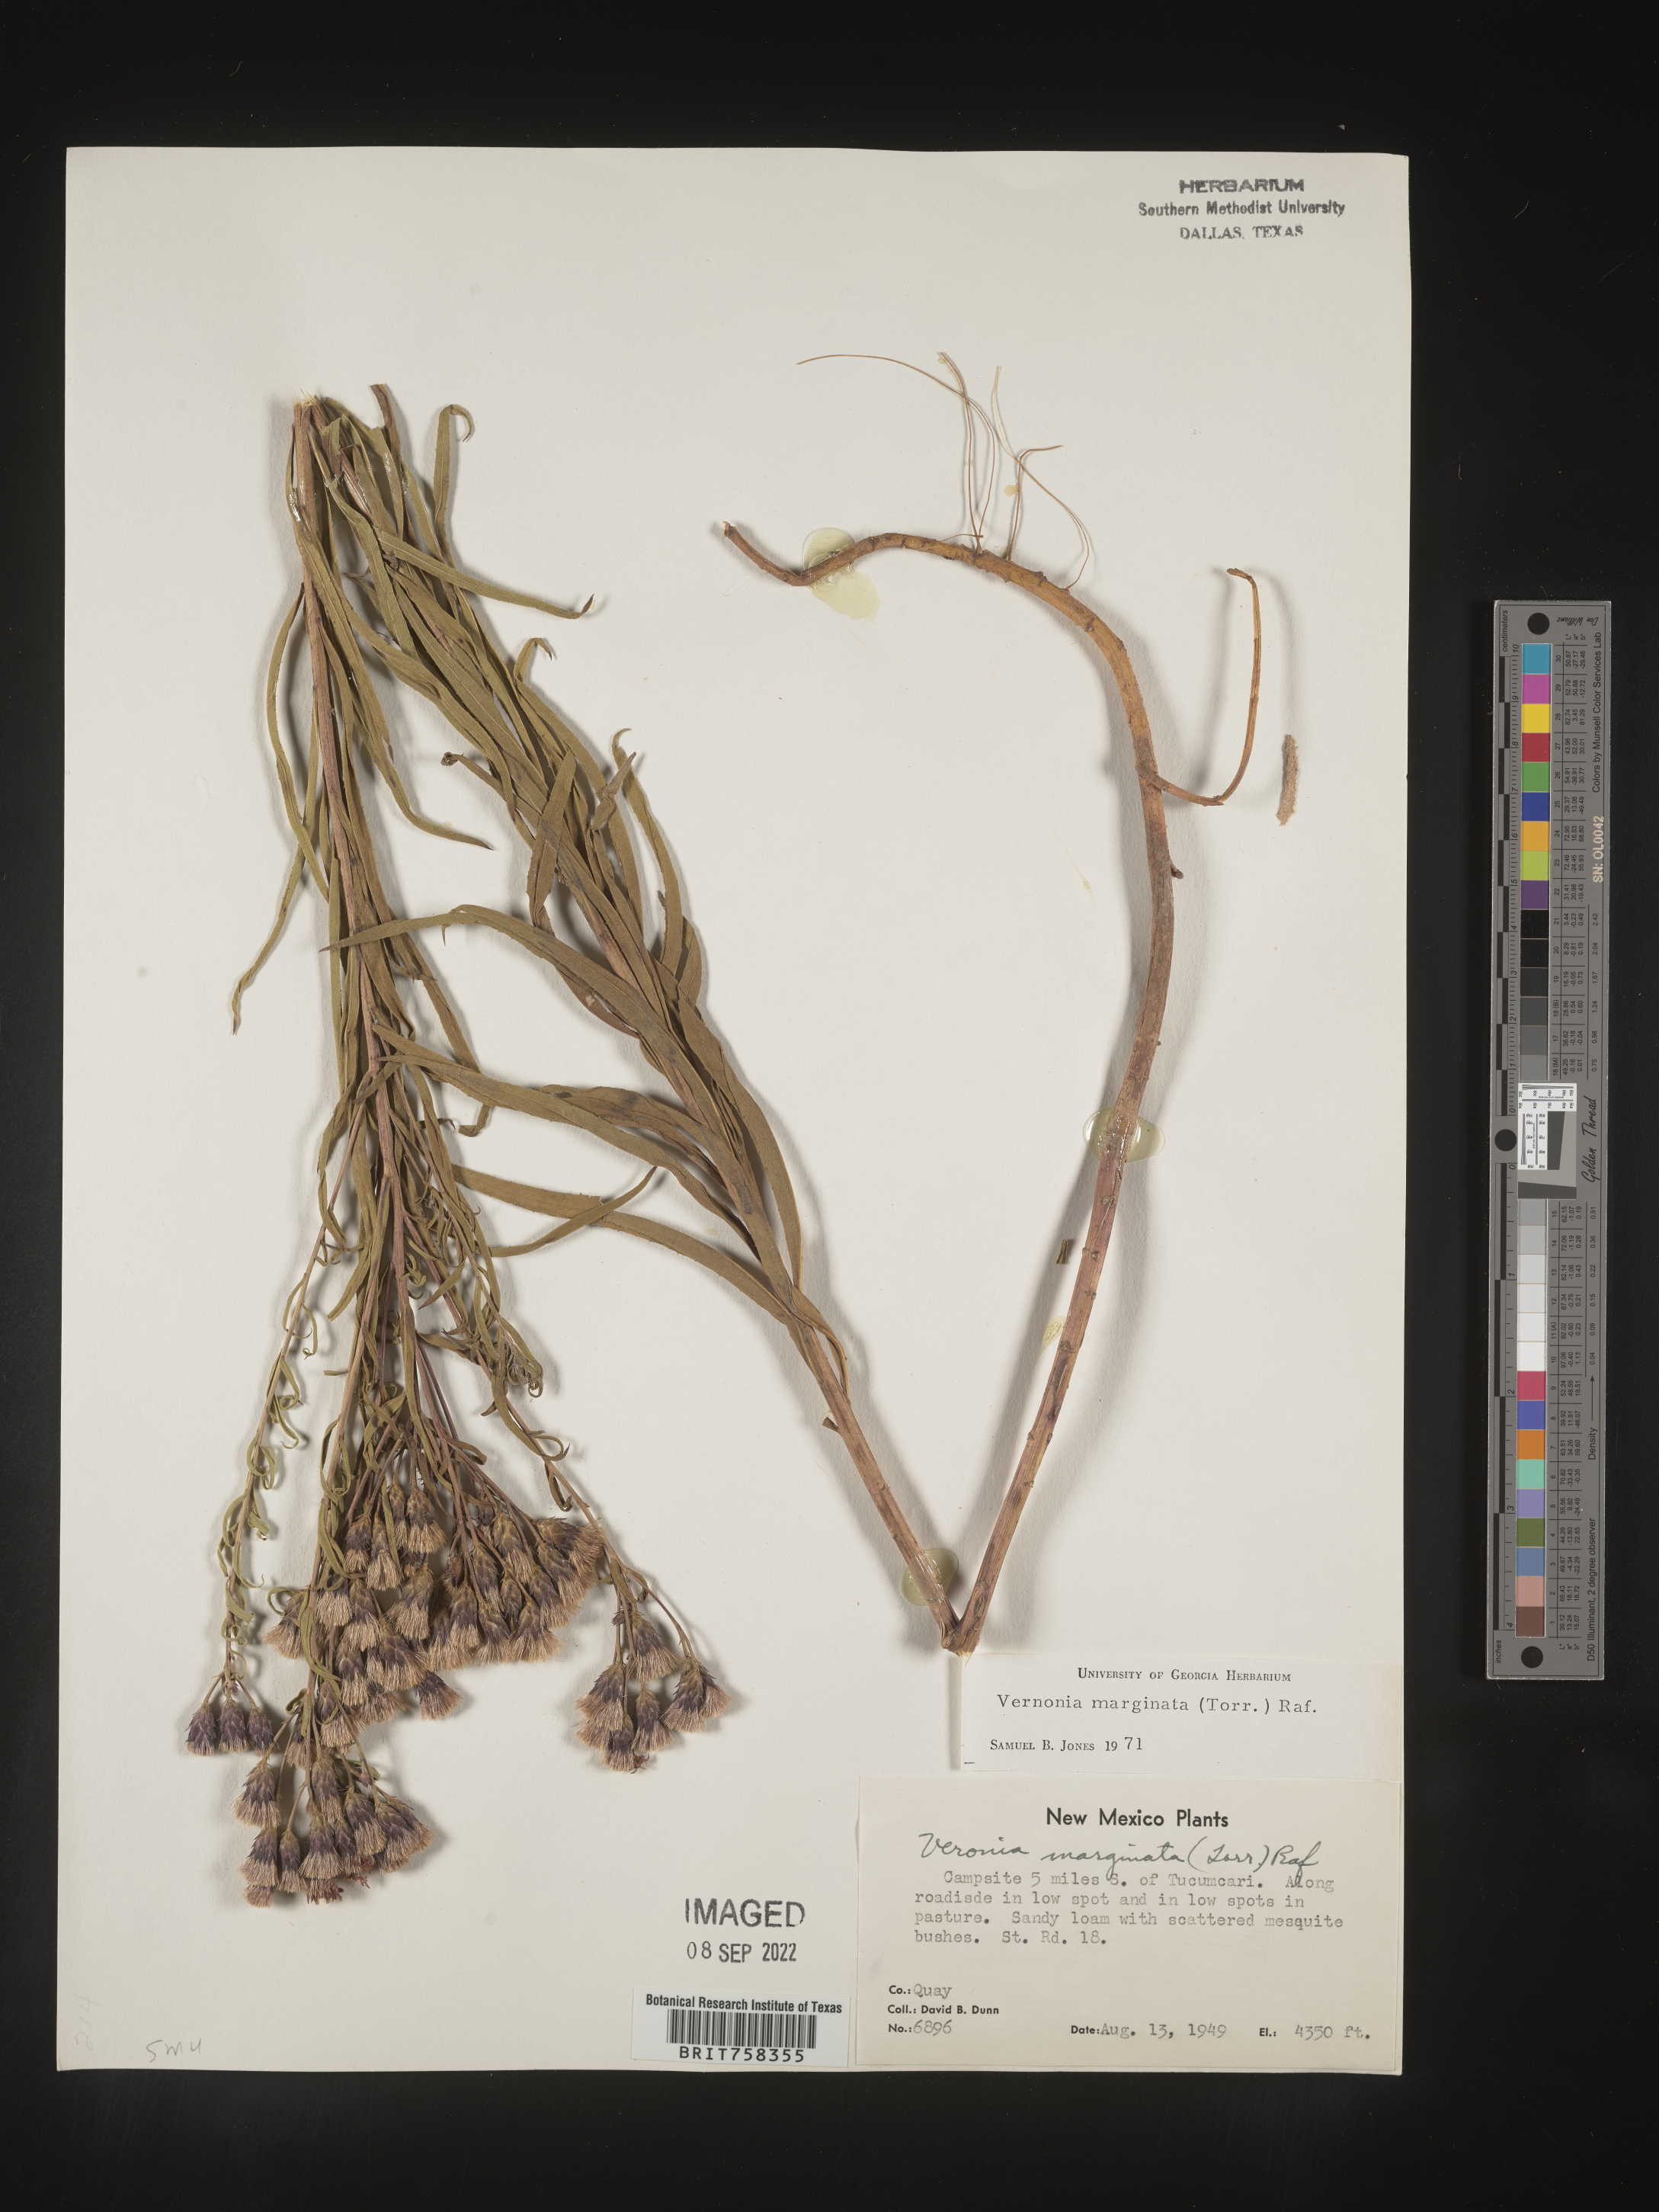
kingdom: Plantae
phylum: Tracheophyta
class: Magnoliopsida
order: Asterales
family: Asteraceae
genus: Vernonia
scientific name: Vernonia marginata
